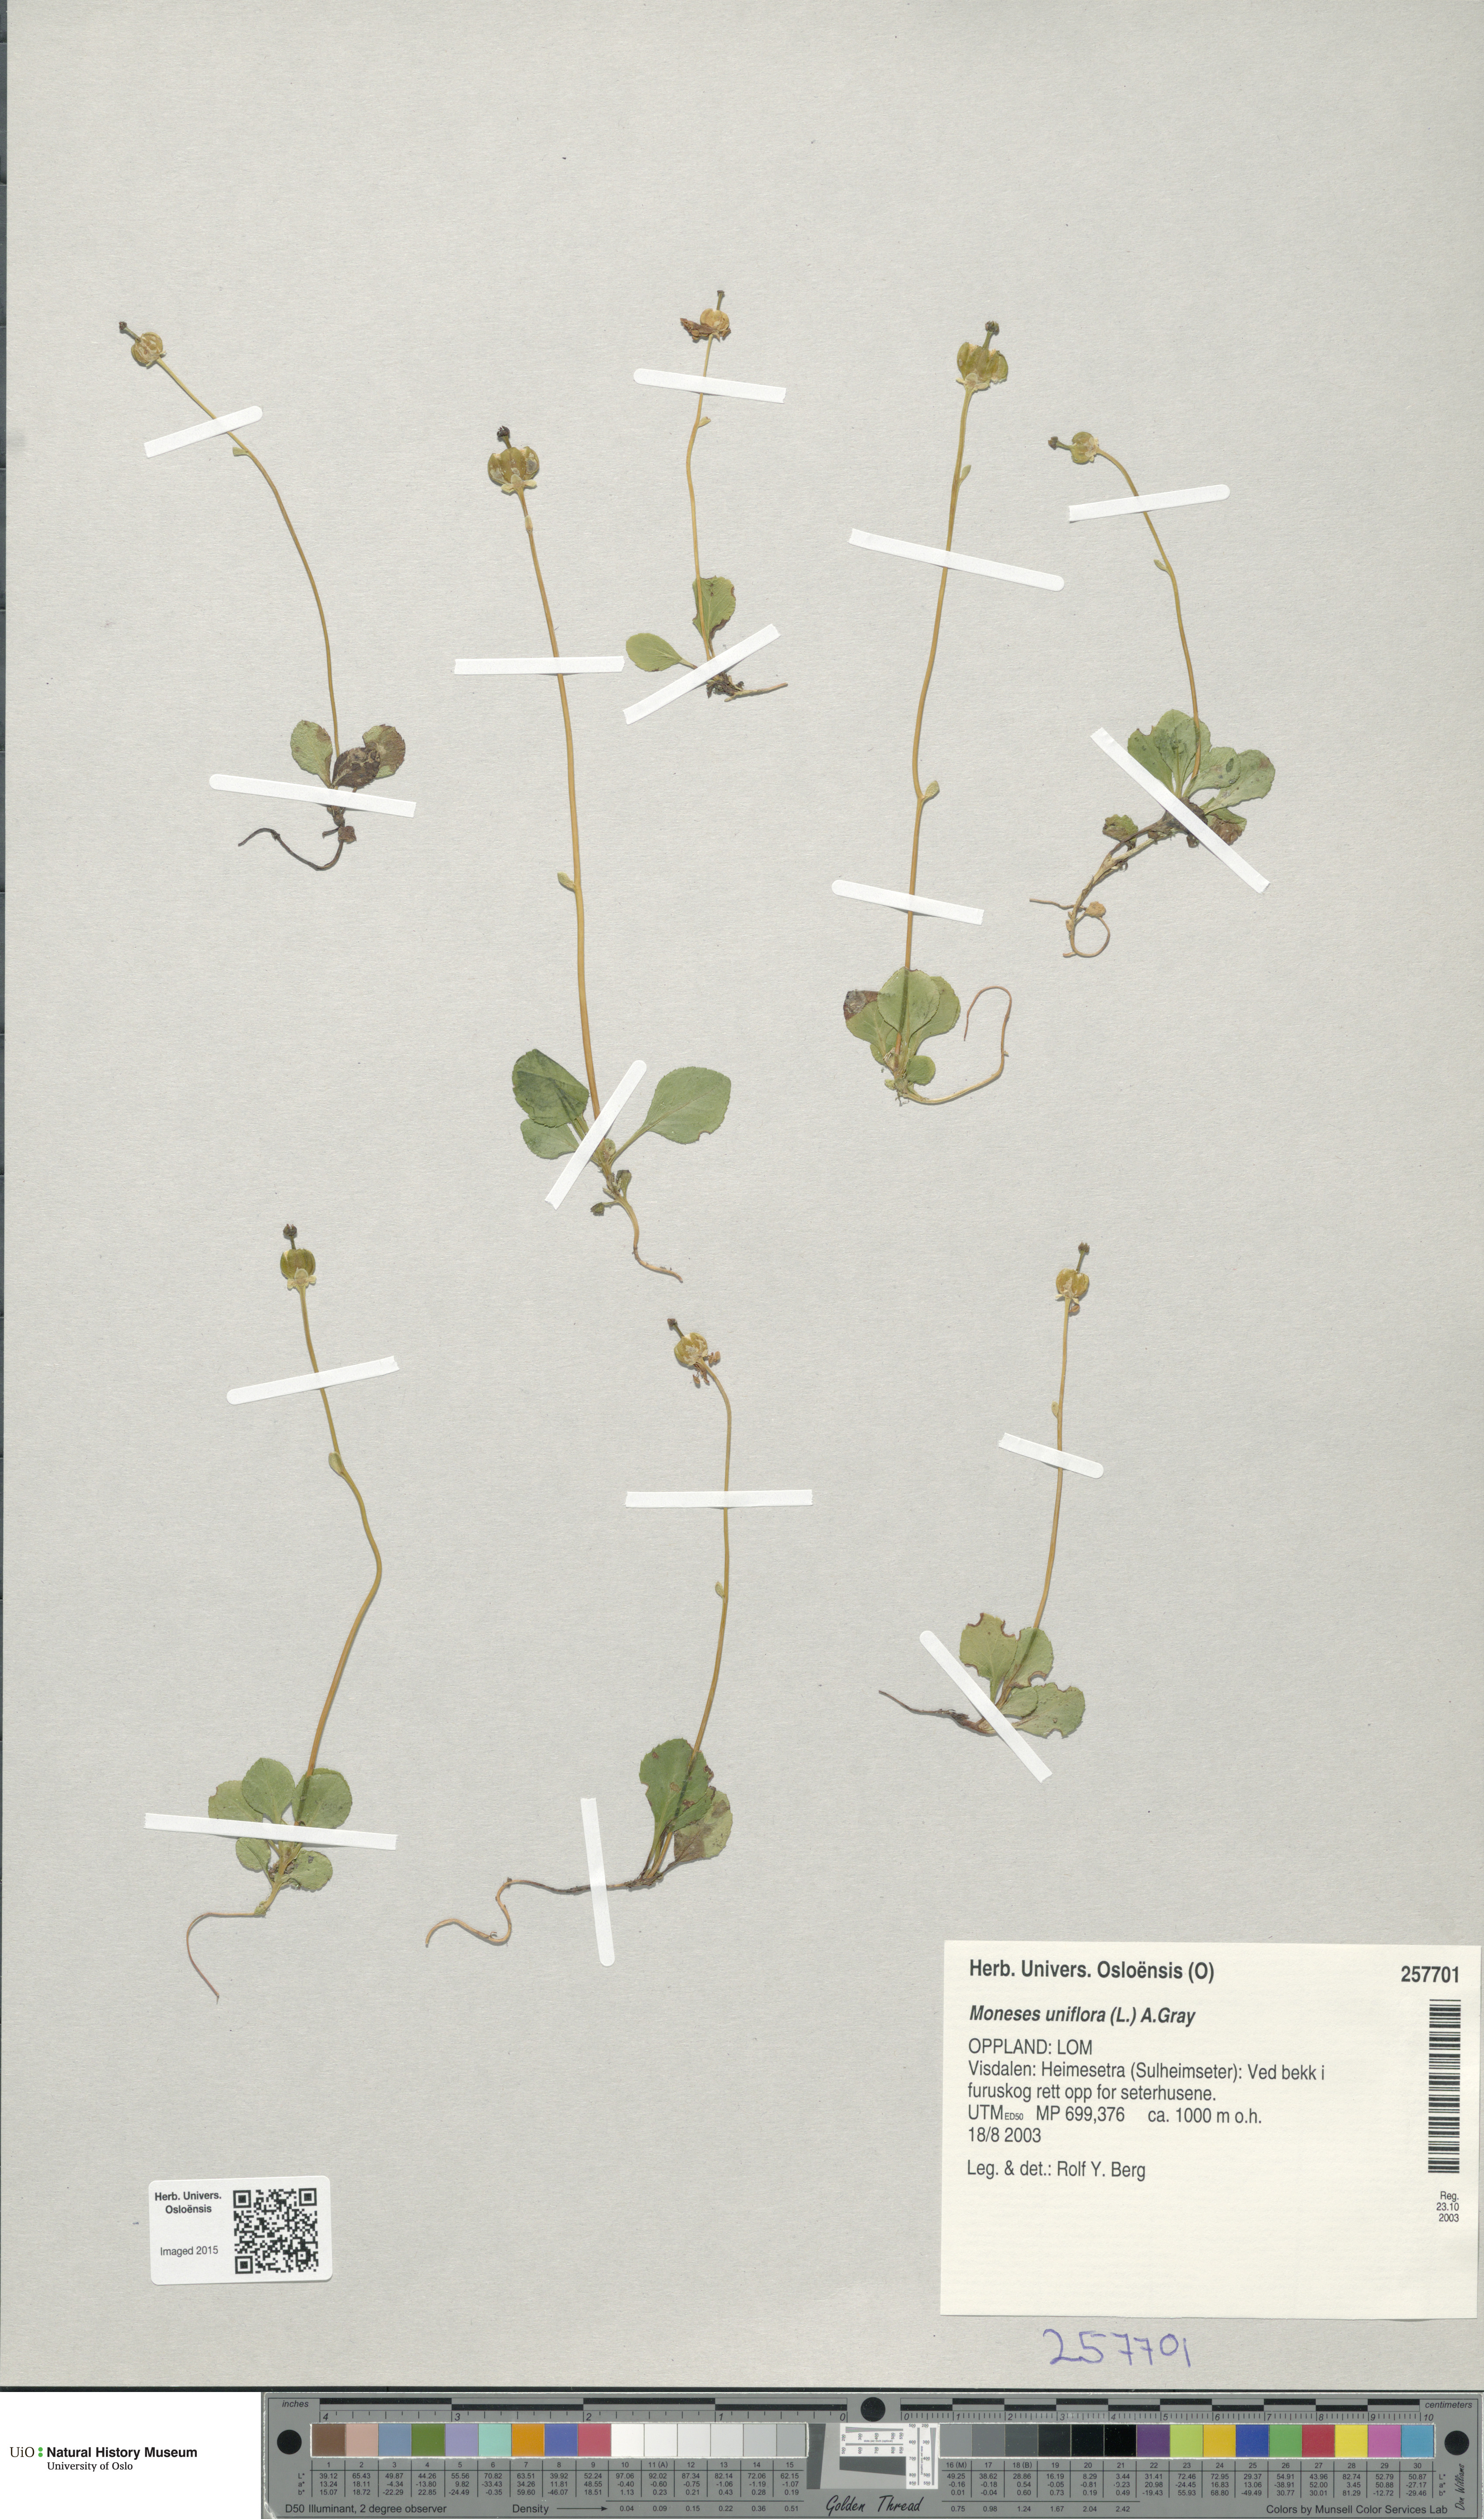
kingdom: Plantae
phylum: Tracheophyta
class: Magnoliopsida
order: Ericales
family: Ericaceae
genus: Moneses
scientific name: Moneses uniflora
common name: One-flowered wintergreen
